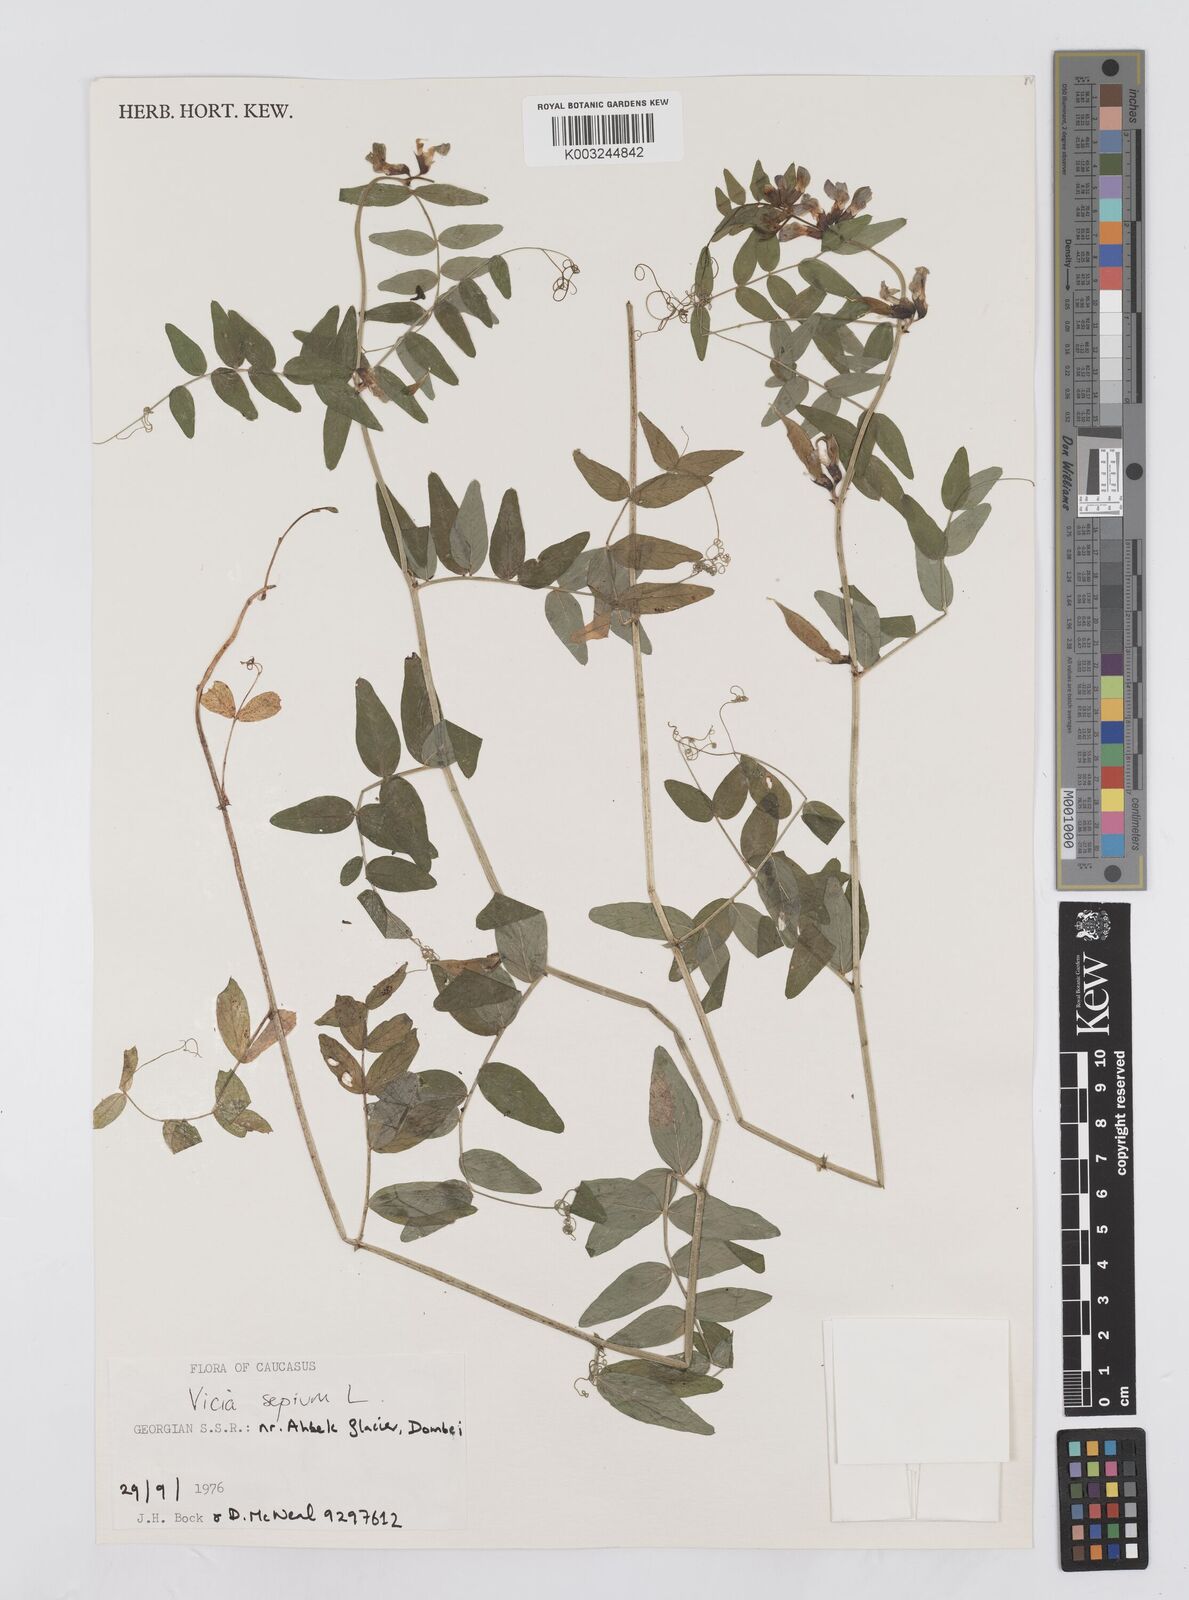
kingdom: Plantae
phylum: Tracheophyta
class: Magnoliopsida
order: Fabales
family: Fabaceae
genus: Vicia
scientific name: Vicia sepium
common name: Bush vetch
